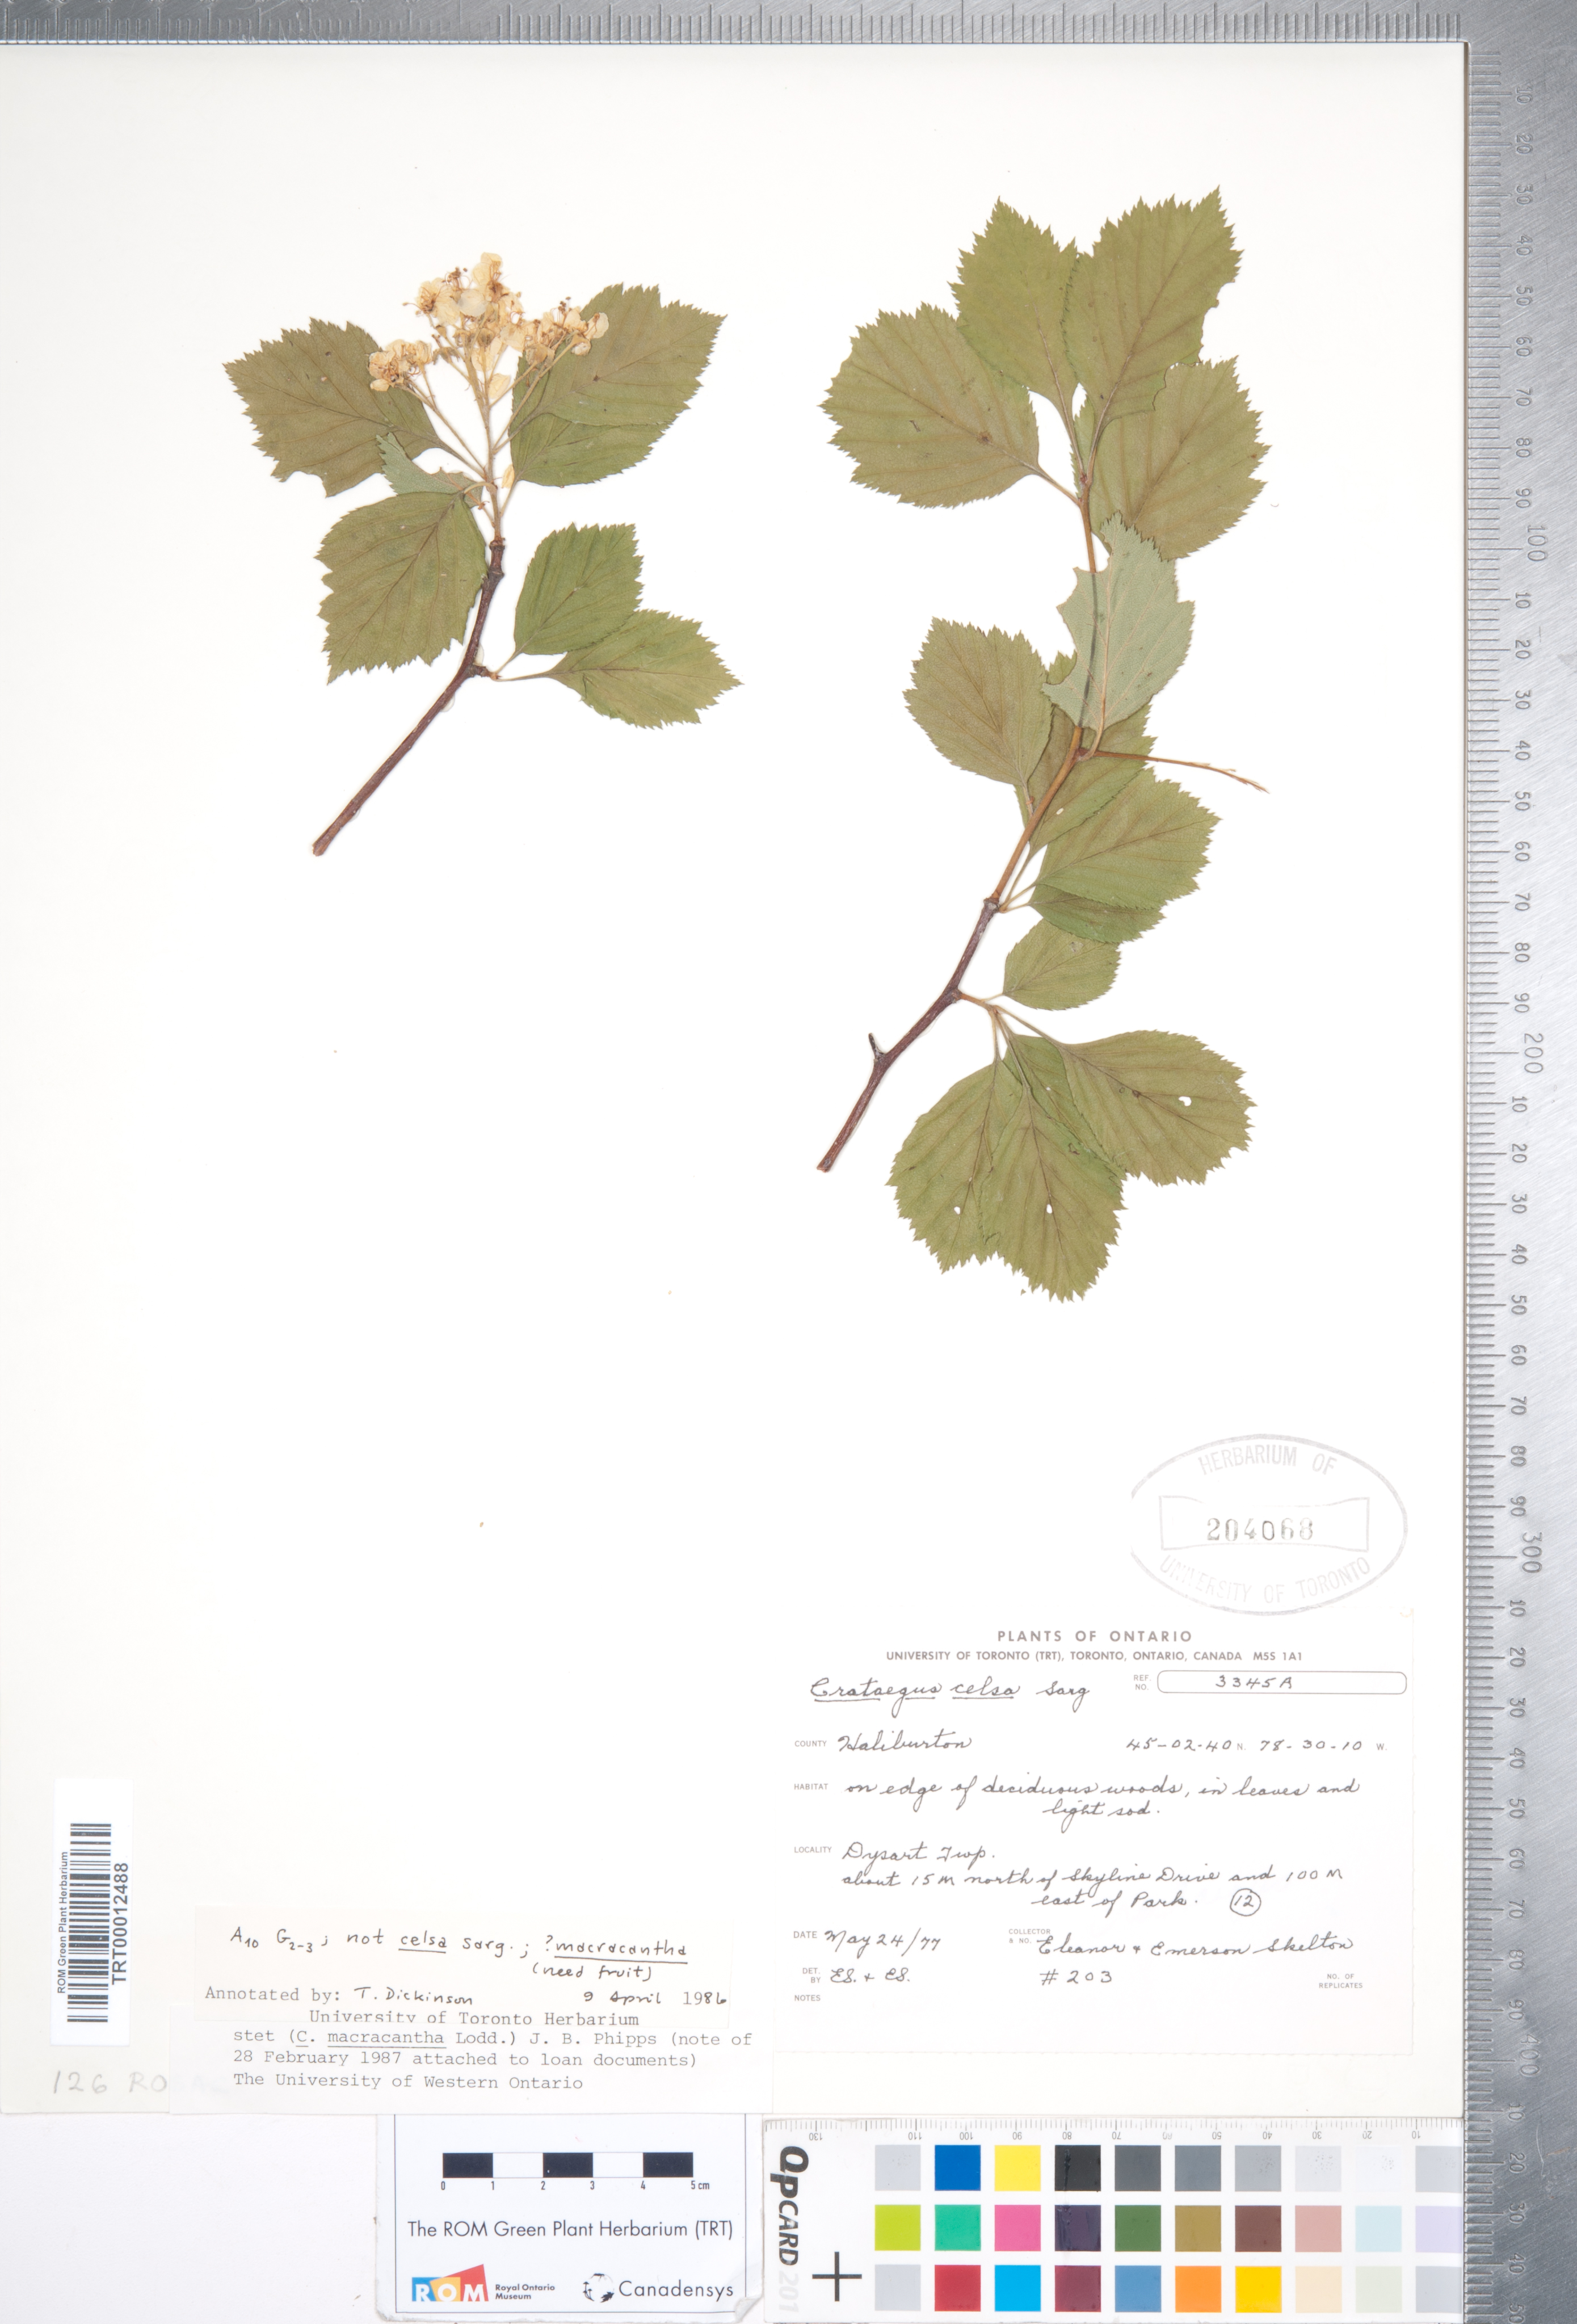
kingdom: Plantae
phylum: Tracheophyta
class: Magnoliopsida
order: Rosales
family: Rosaceae
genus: Crataegus
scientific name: Crataegus macracantha
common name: Large-thorn hawthorn
